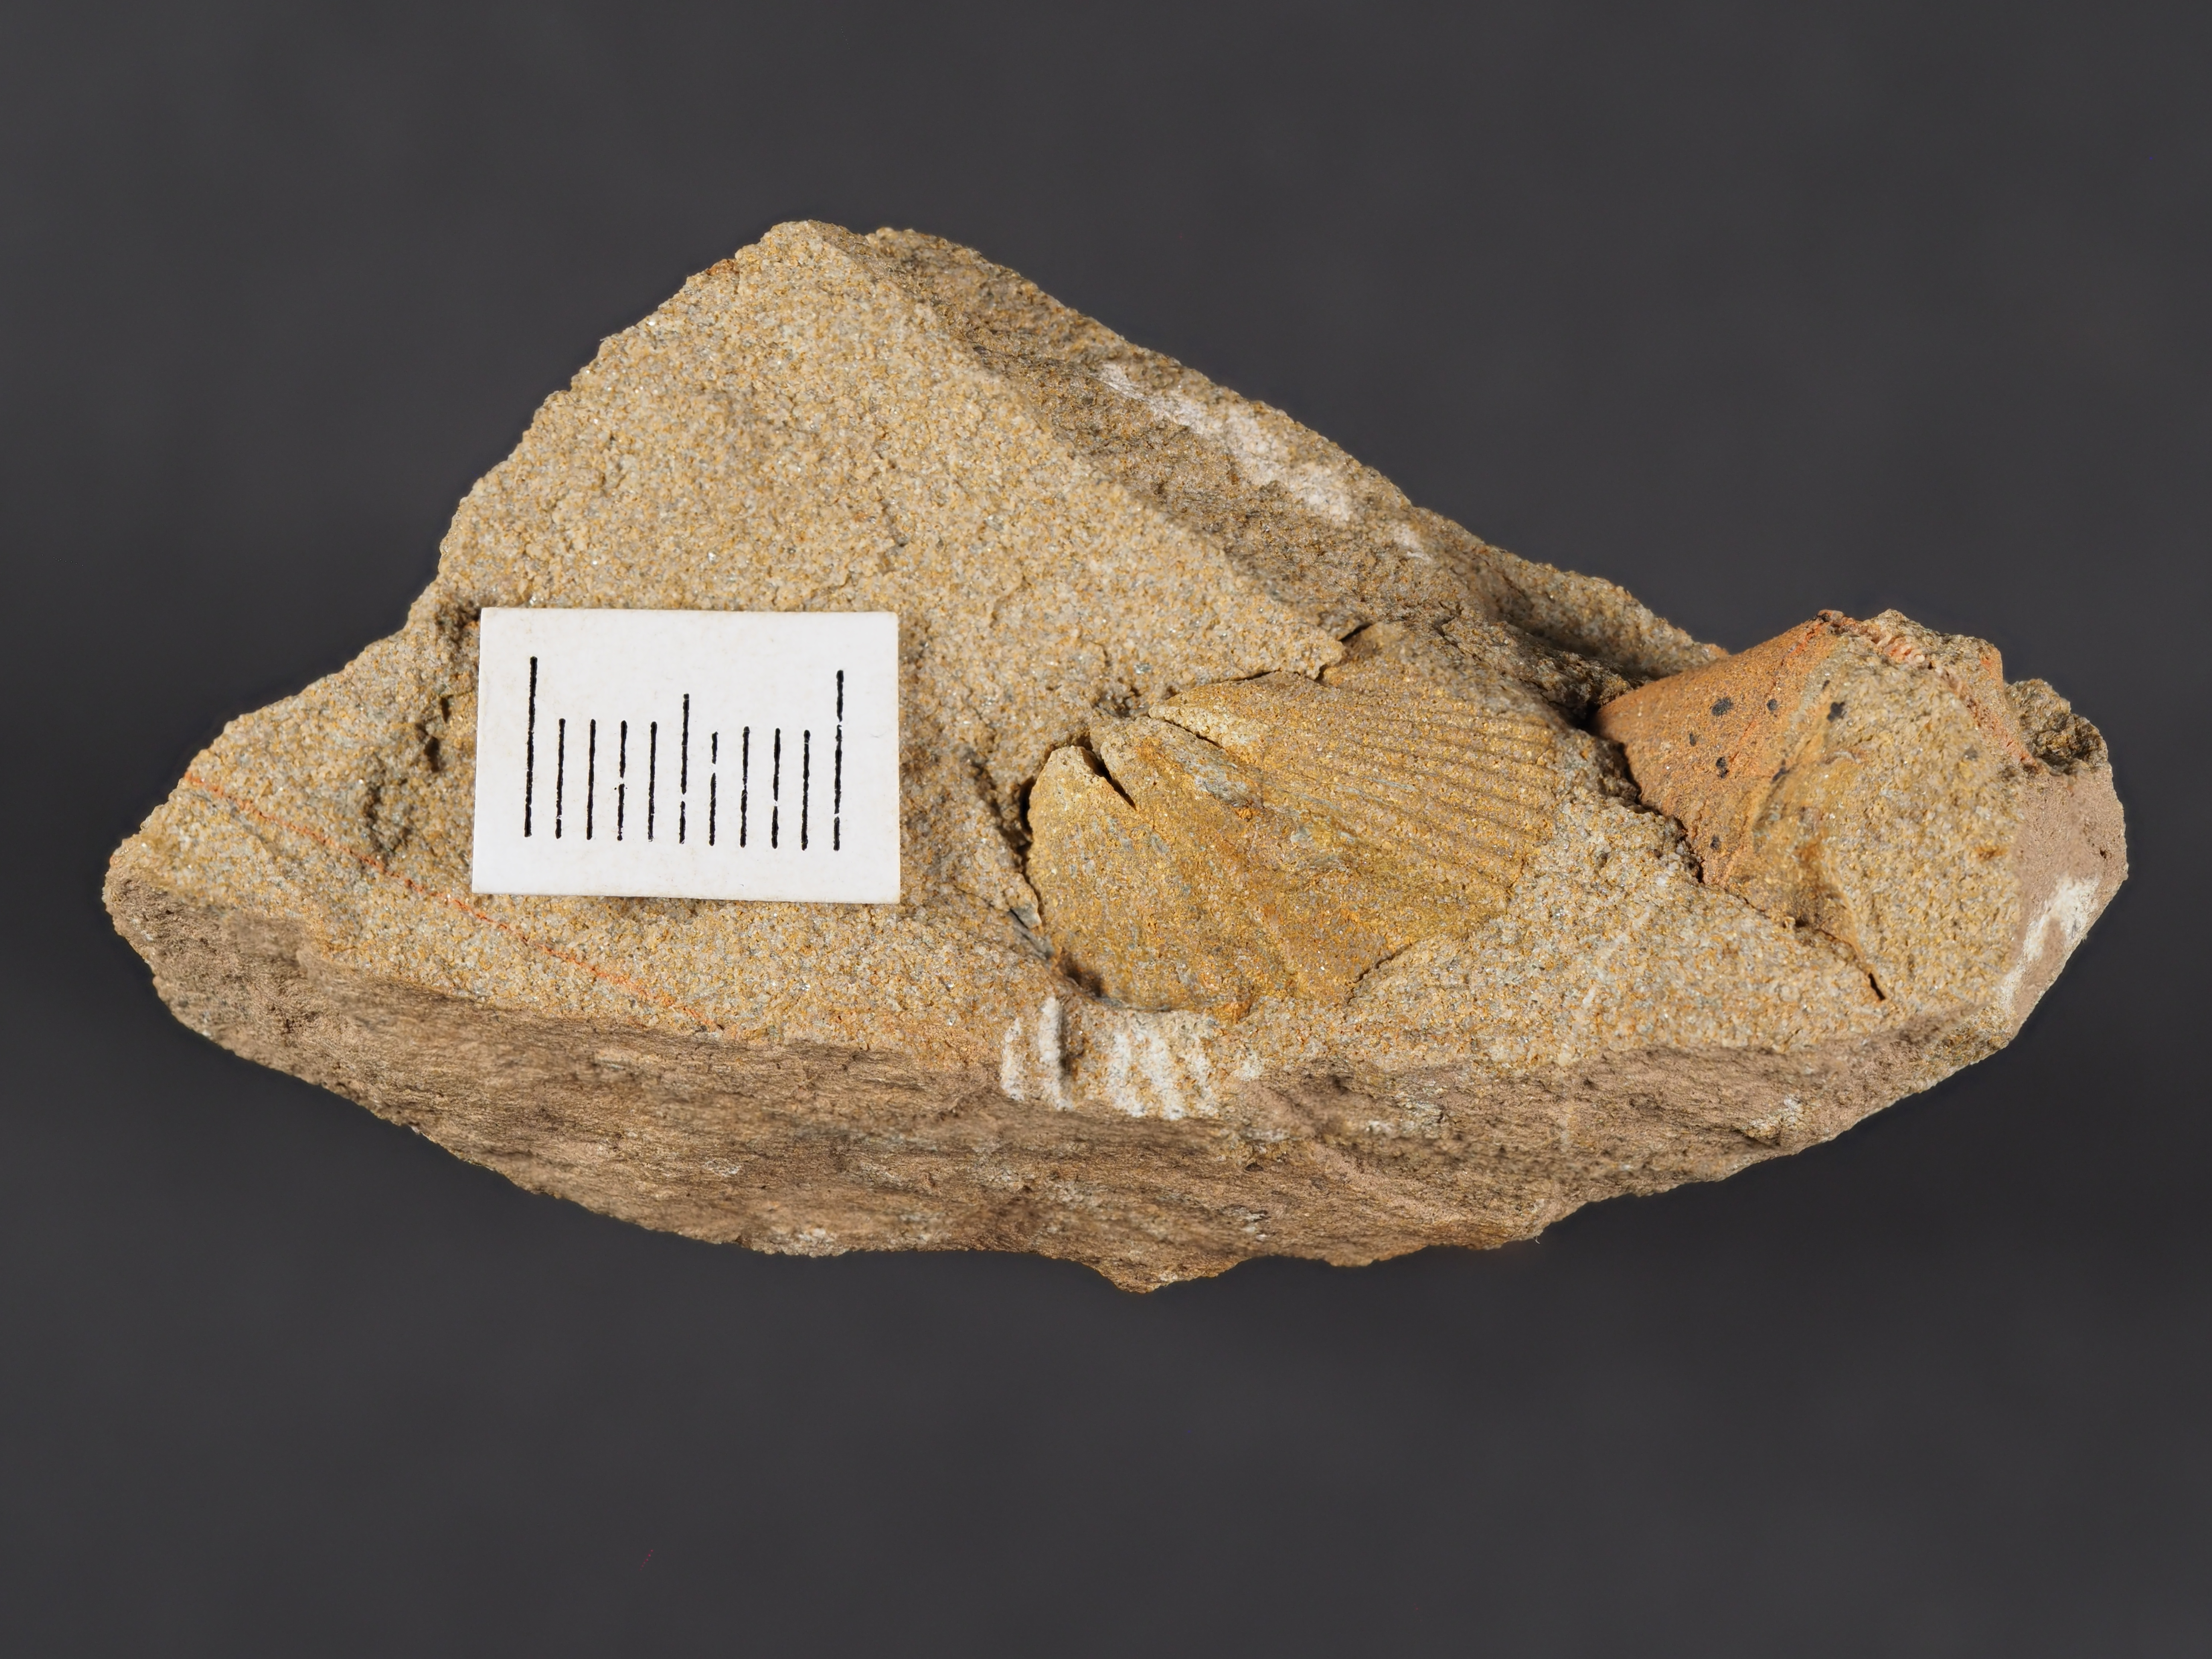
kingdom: Animalia
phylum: Brachiopoda
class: Rhynchonellata
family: Spinocyrtiidae
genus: Subcuspidella
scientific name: Subcuspidella
